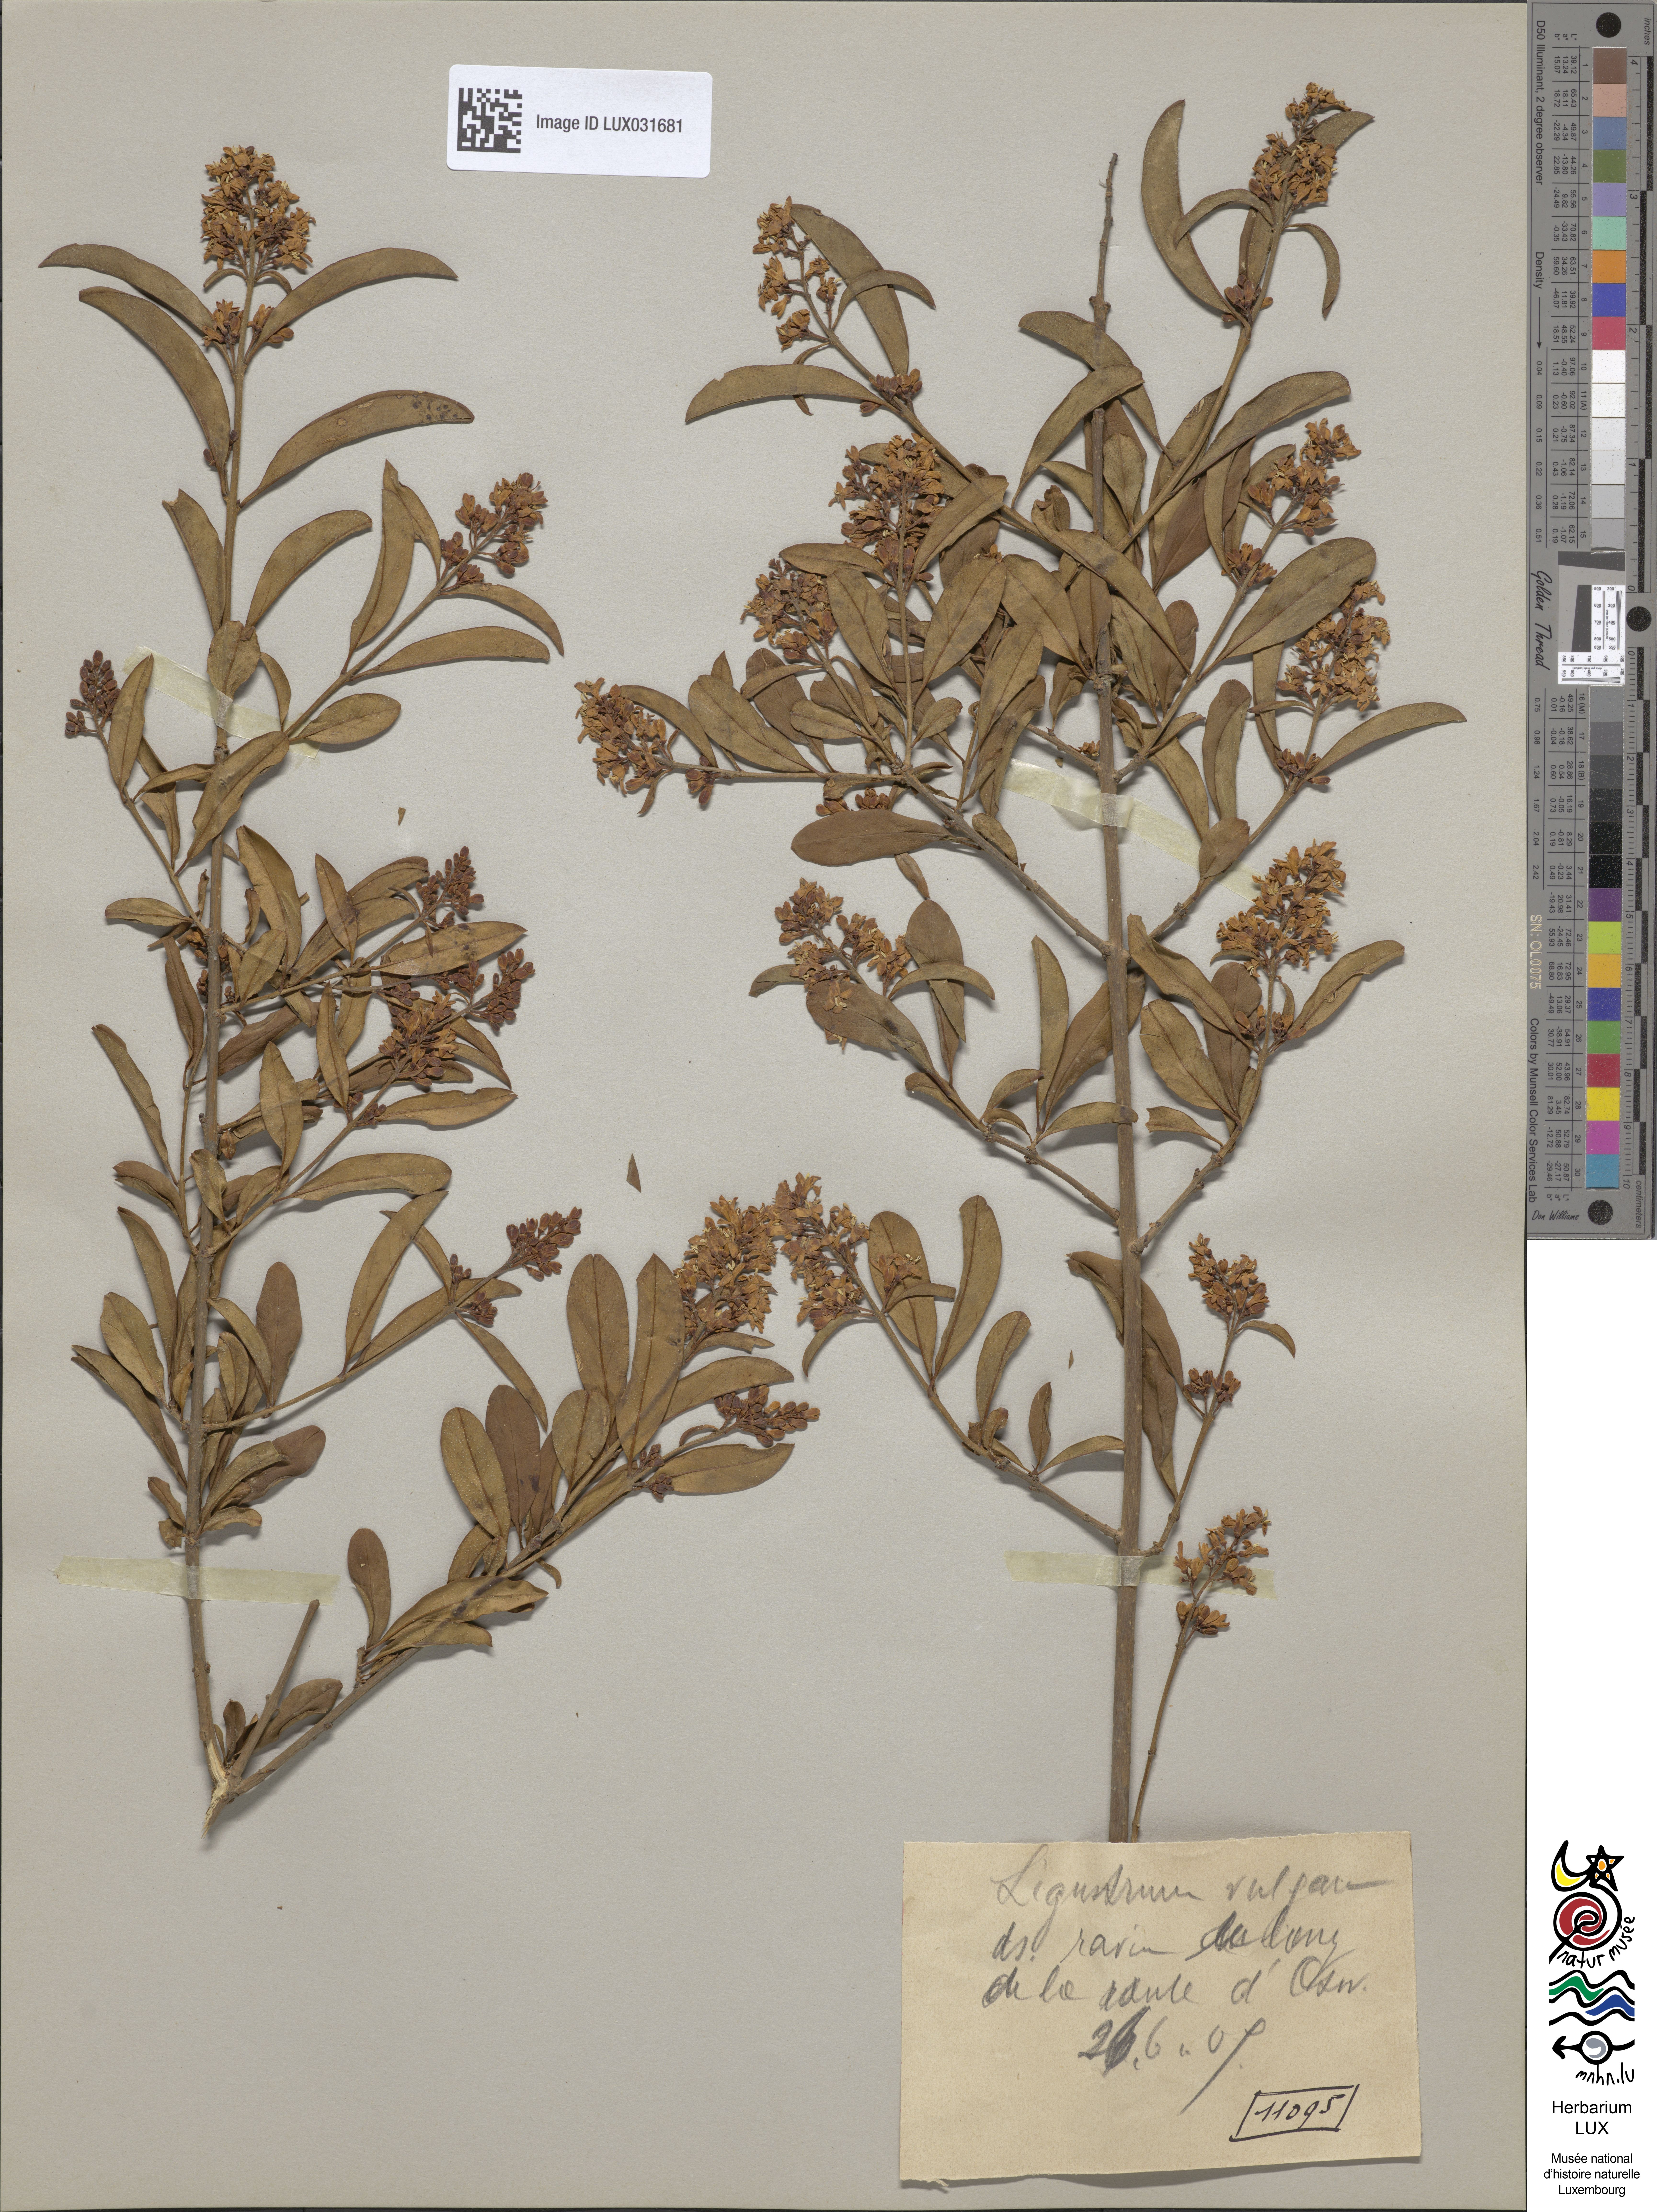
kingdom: Plantae
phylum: Tracheophyta
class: Magnoliopsida
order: Lamiales
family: Oleaceae
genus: Ligustrum
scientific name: Ligustrum vulgare
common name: Wild privet
